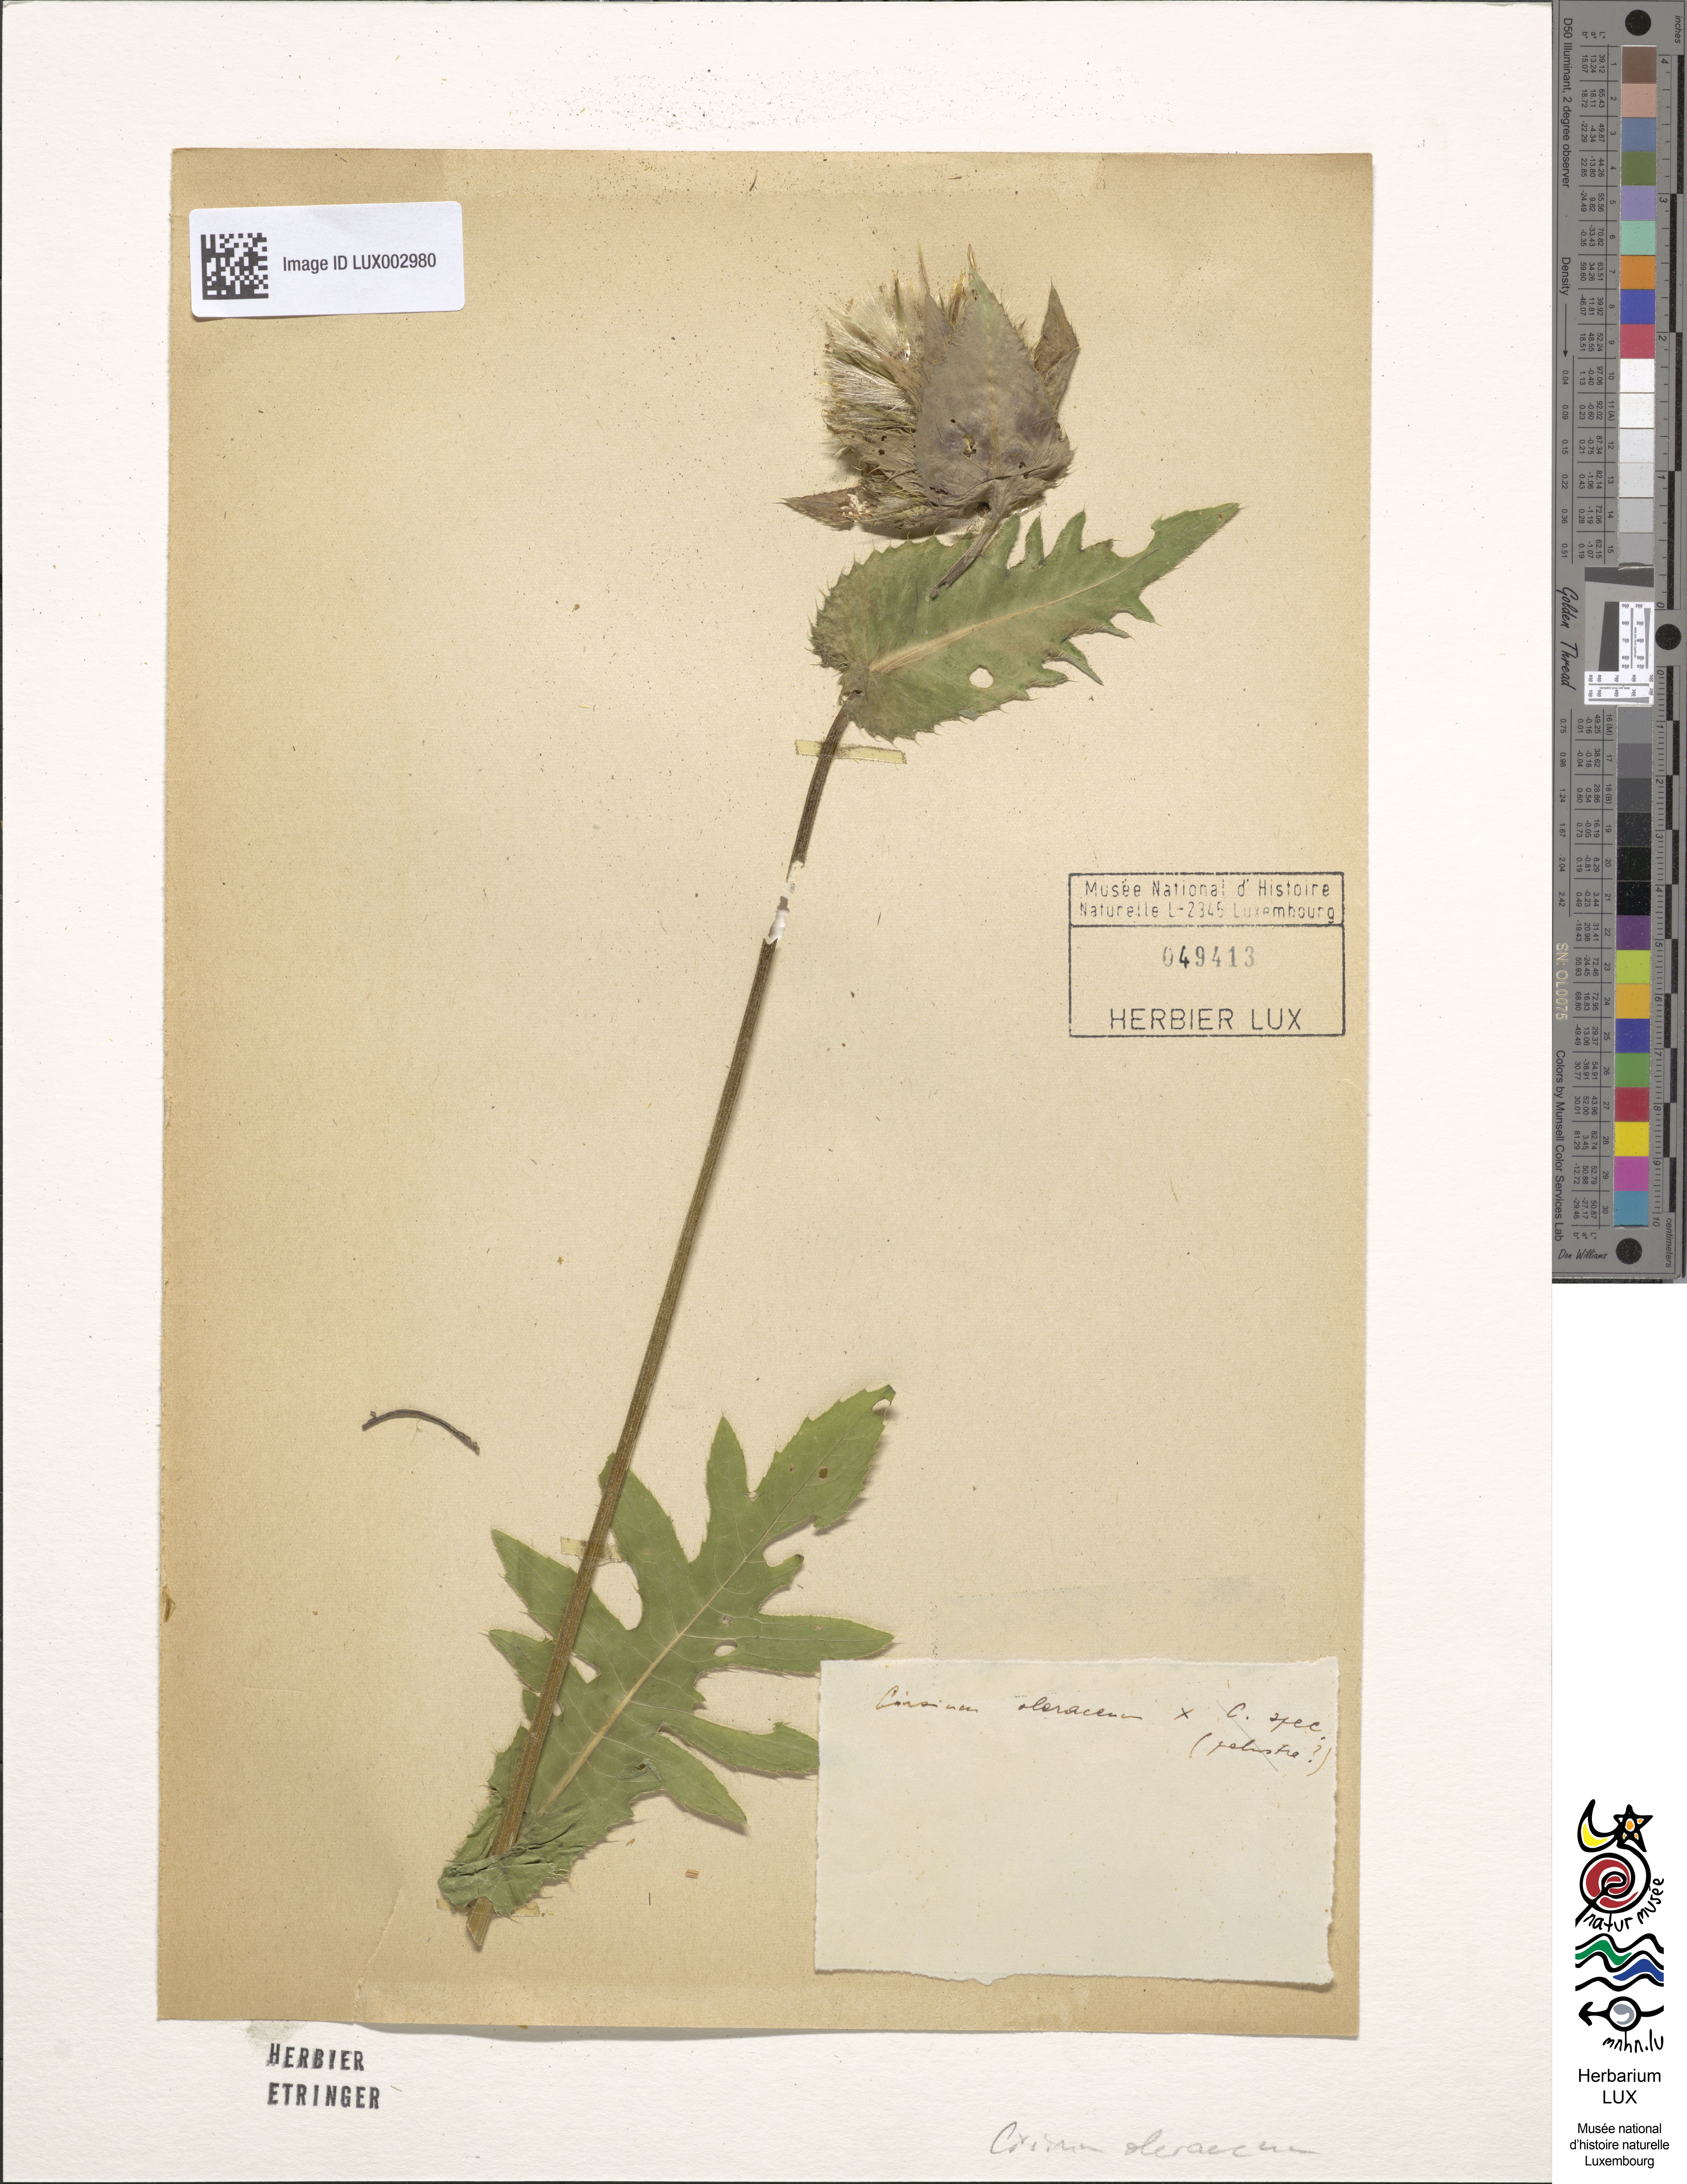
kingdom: Plantae
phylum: Tracheophyta
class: Magnoliopsida
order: Asterales
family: Asteraceae
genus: Cirsium
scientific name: Cirsium oleraceum
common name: Cabbage thistle
